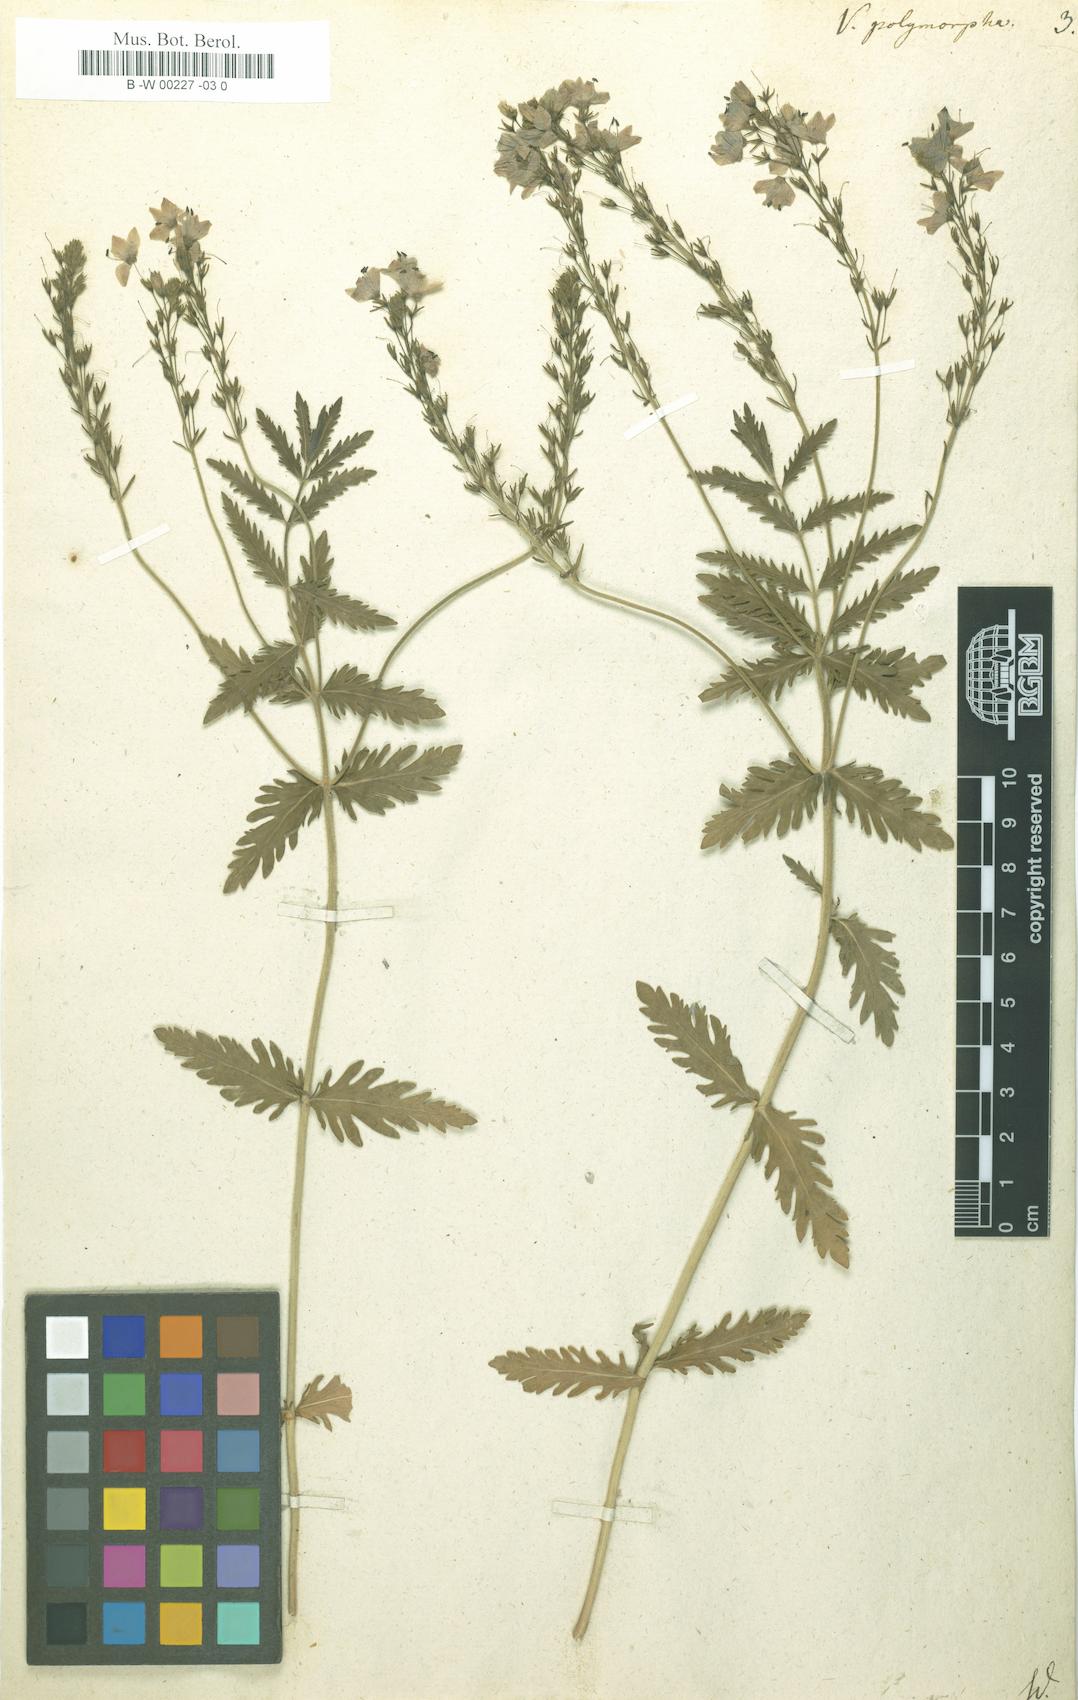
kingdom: Plantae
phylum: Tracheophyta
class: Magnoliopsida
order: Lamiales
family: Plantaginaceae
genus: Veronica
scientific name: Veronica austriaca
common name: Large speedwell
